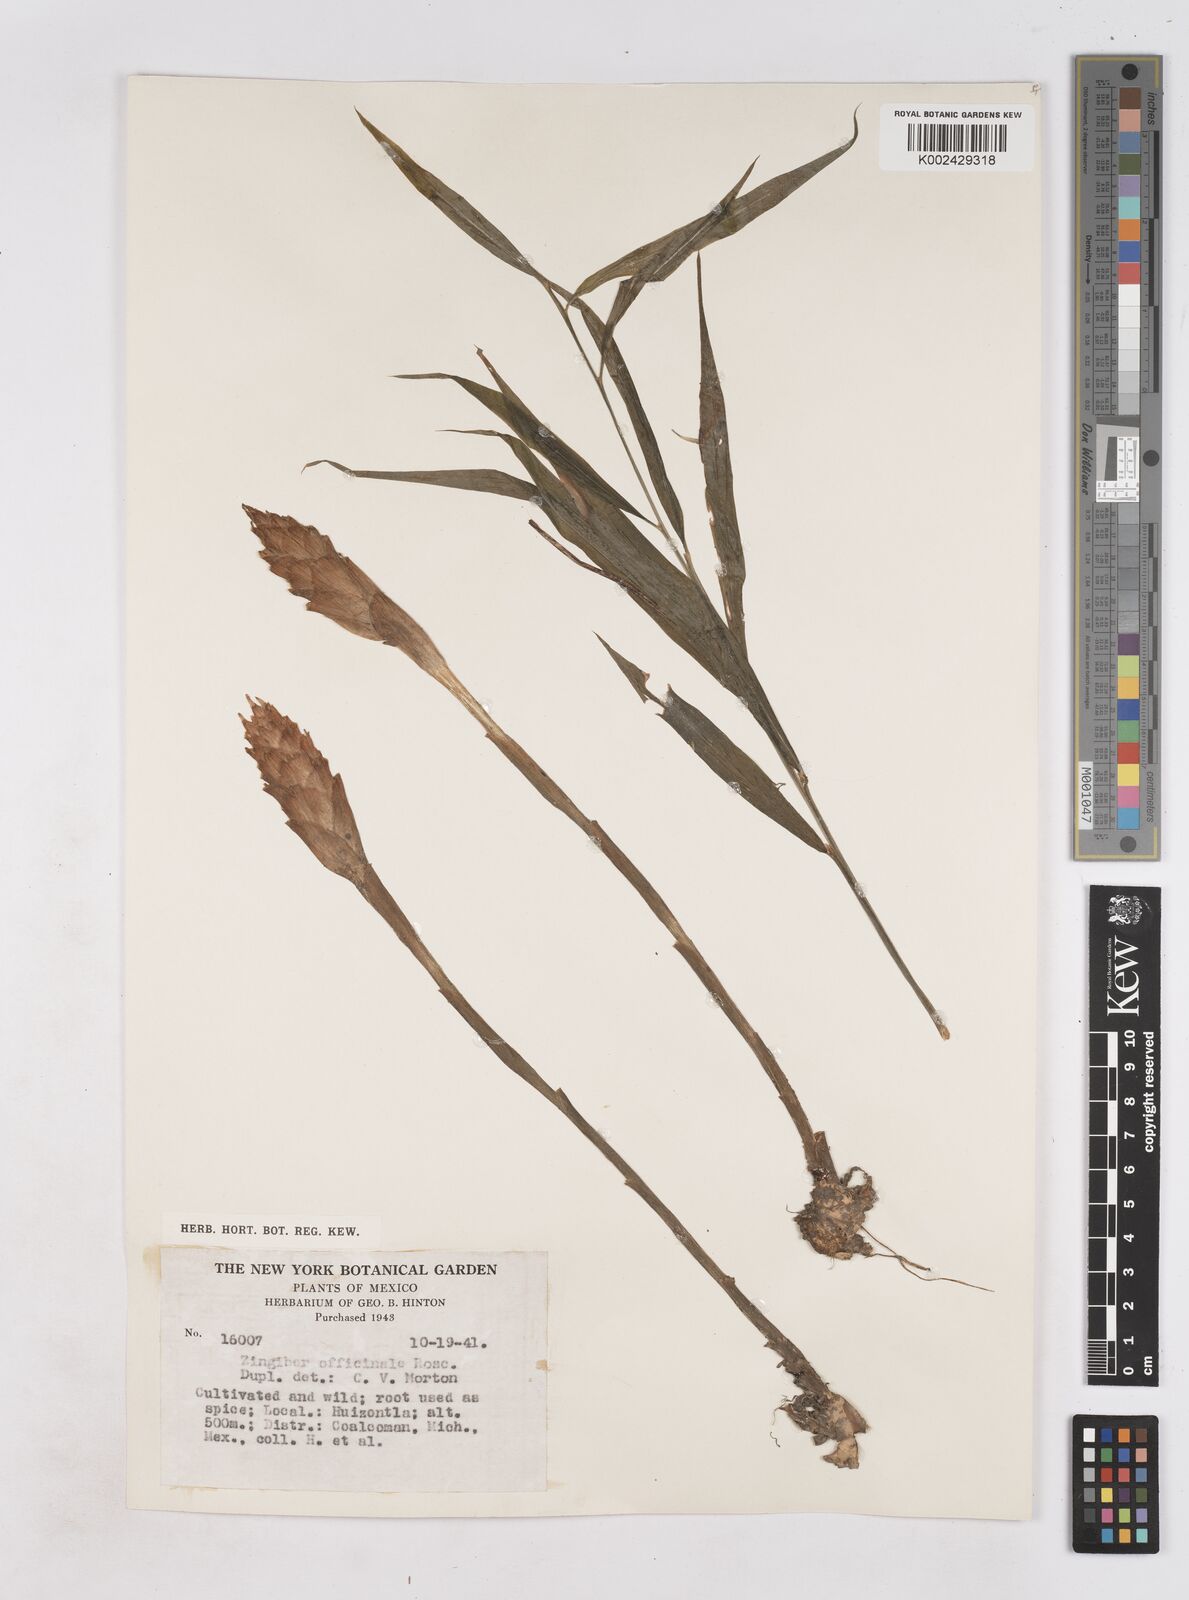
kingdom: Plantae
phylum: Tracheophyta
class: Liliopsida
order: Zingiberales
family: Zingiberaceae
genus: Zingiber
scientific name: Zingiber officinale
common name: Ginger
